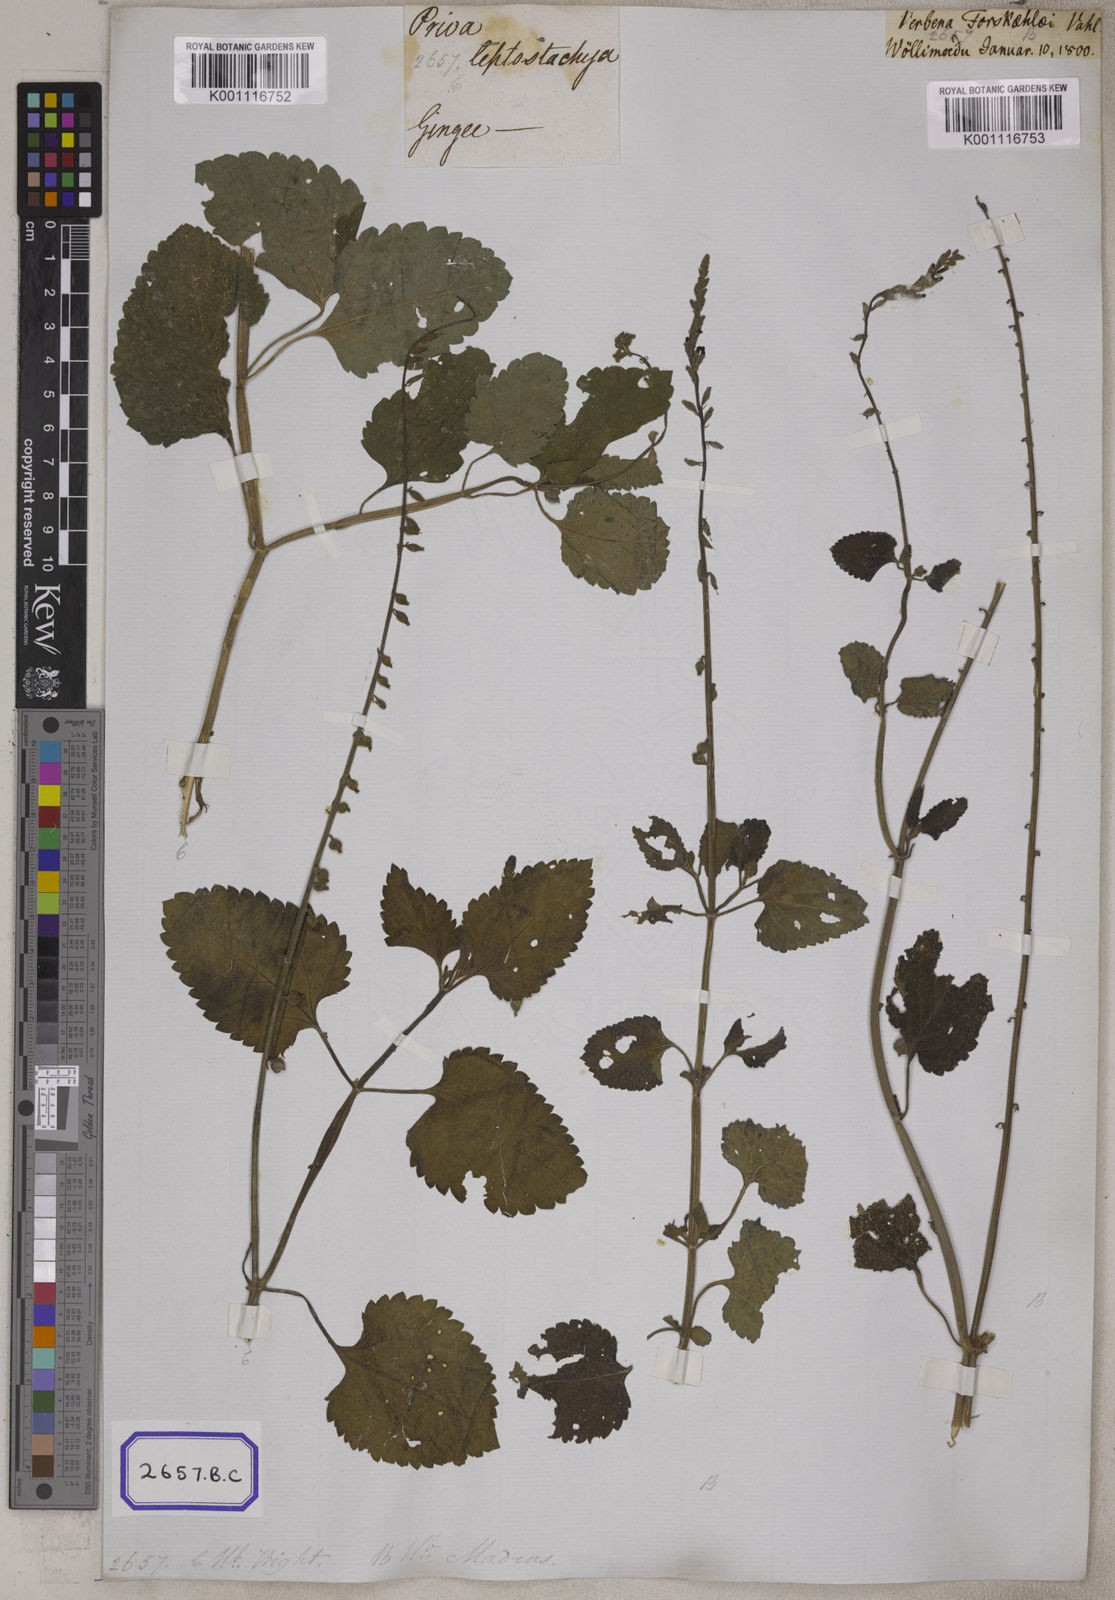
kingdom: Plantae
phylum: Tracheophyta
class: Magnoliopsida
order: Lamiales
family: Verbenaceae
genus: Priva
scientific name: Priva cordifolia
